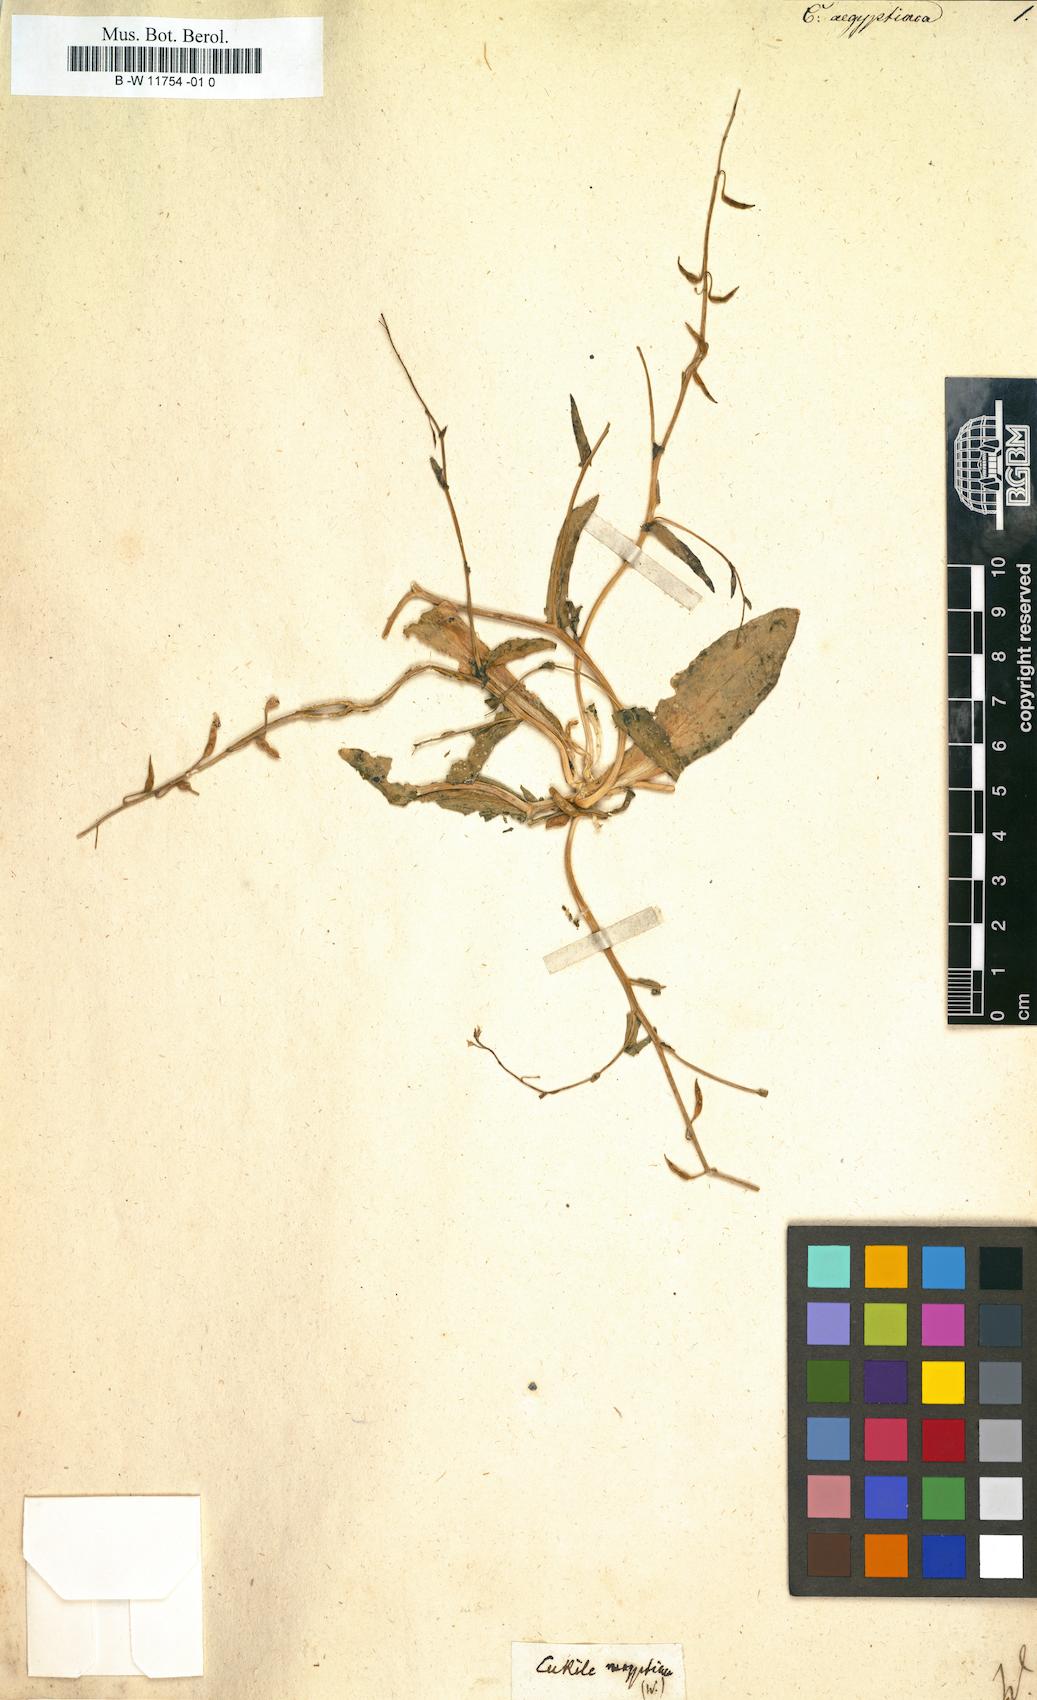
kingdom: Plantae
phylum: Tracheophyta
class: Magnoliopsida
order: Brassicales
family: Brassicaceae
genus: Cakile
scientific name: Cakile maritima
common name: Sea rocket
